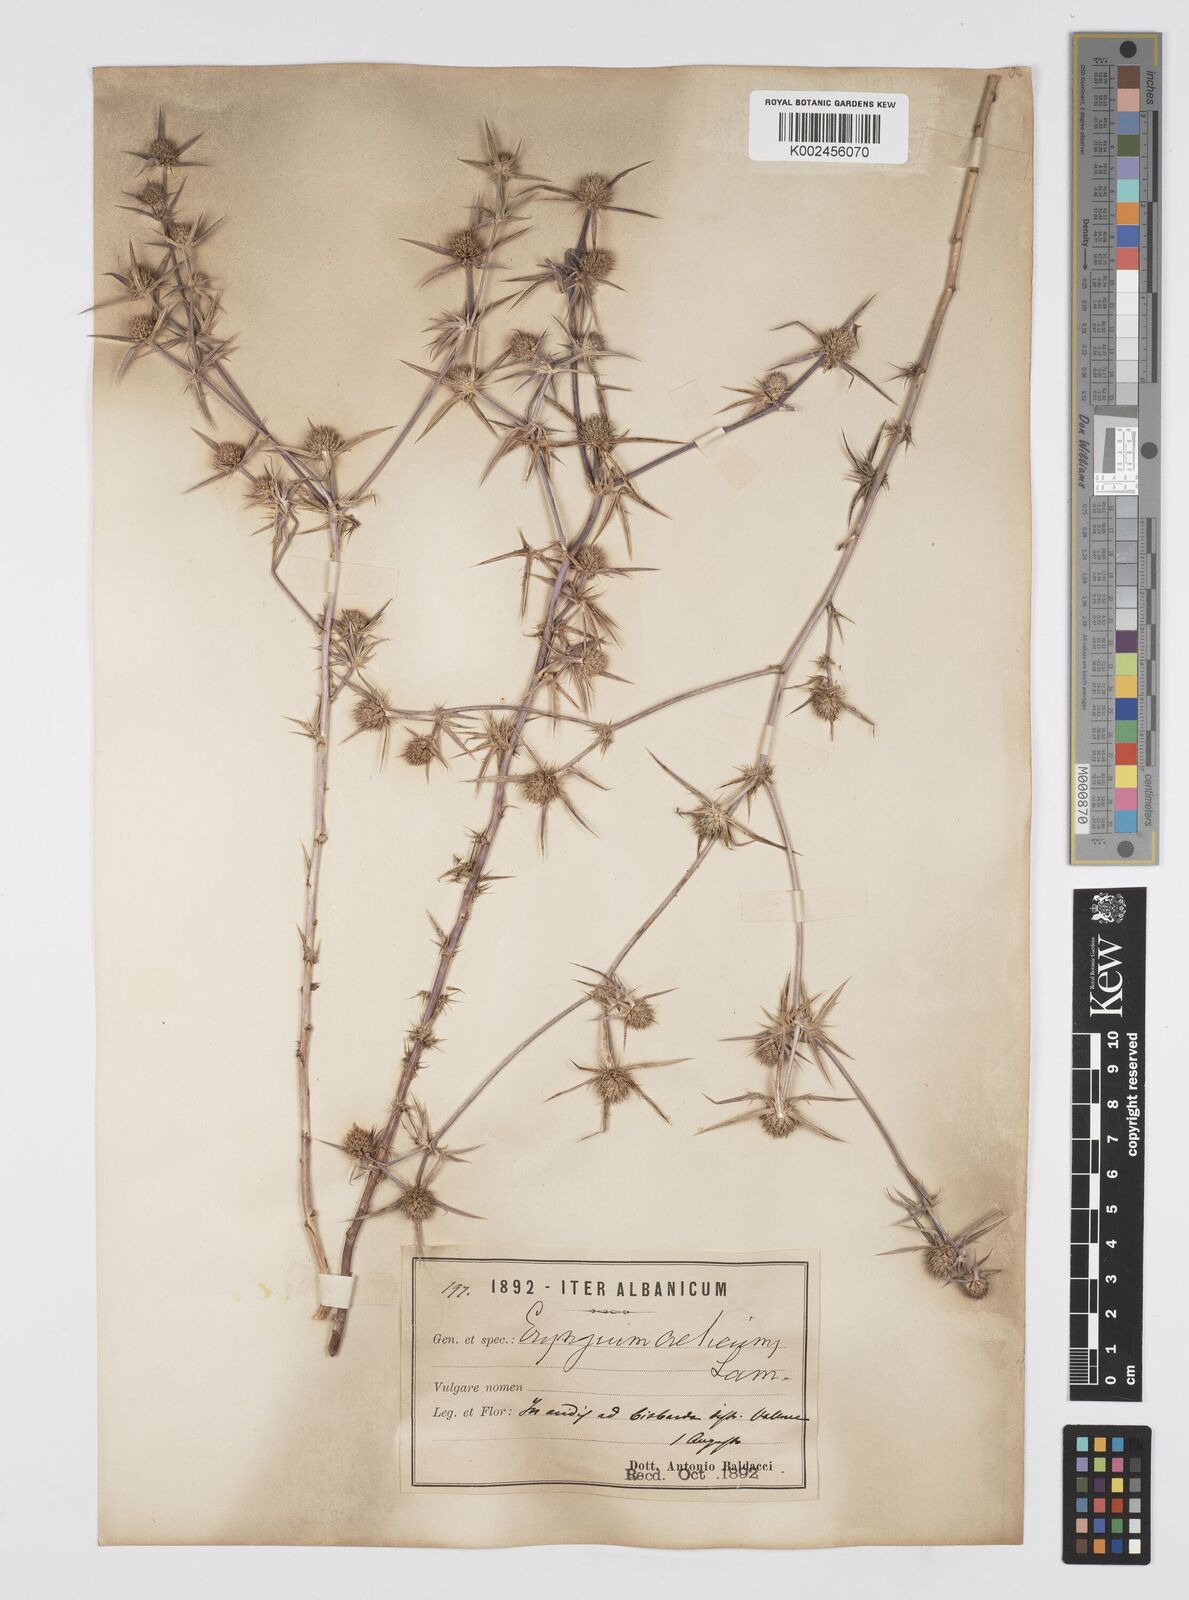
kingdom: Plantae
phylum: Tracheophyta
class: Magnoliopsida
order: Apiales
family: Apiaceae
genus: Eryngium
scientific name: Eryngium creticum
